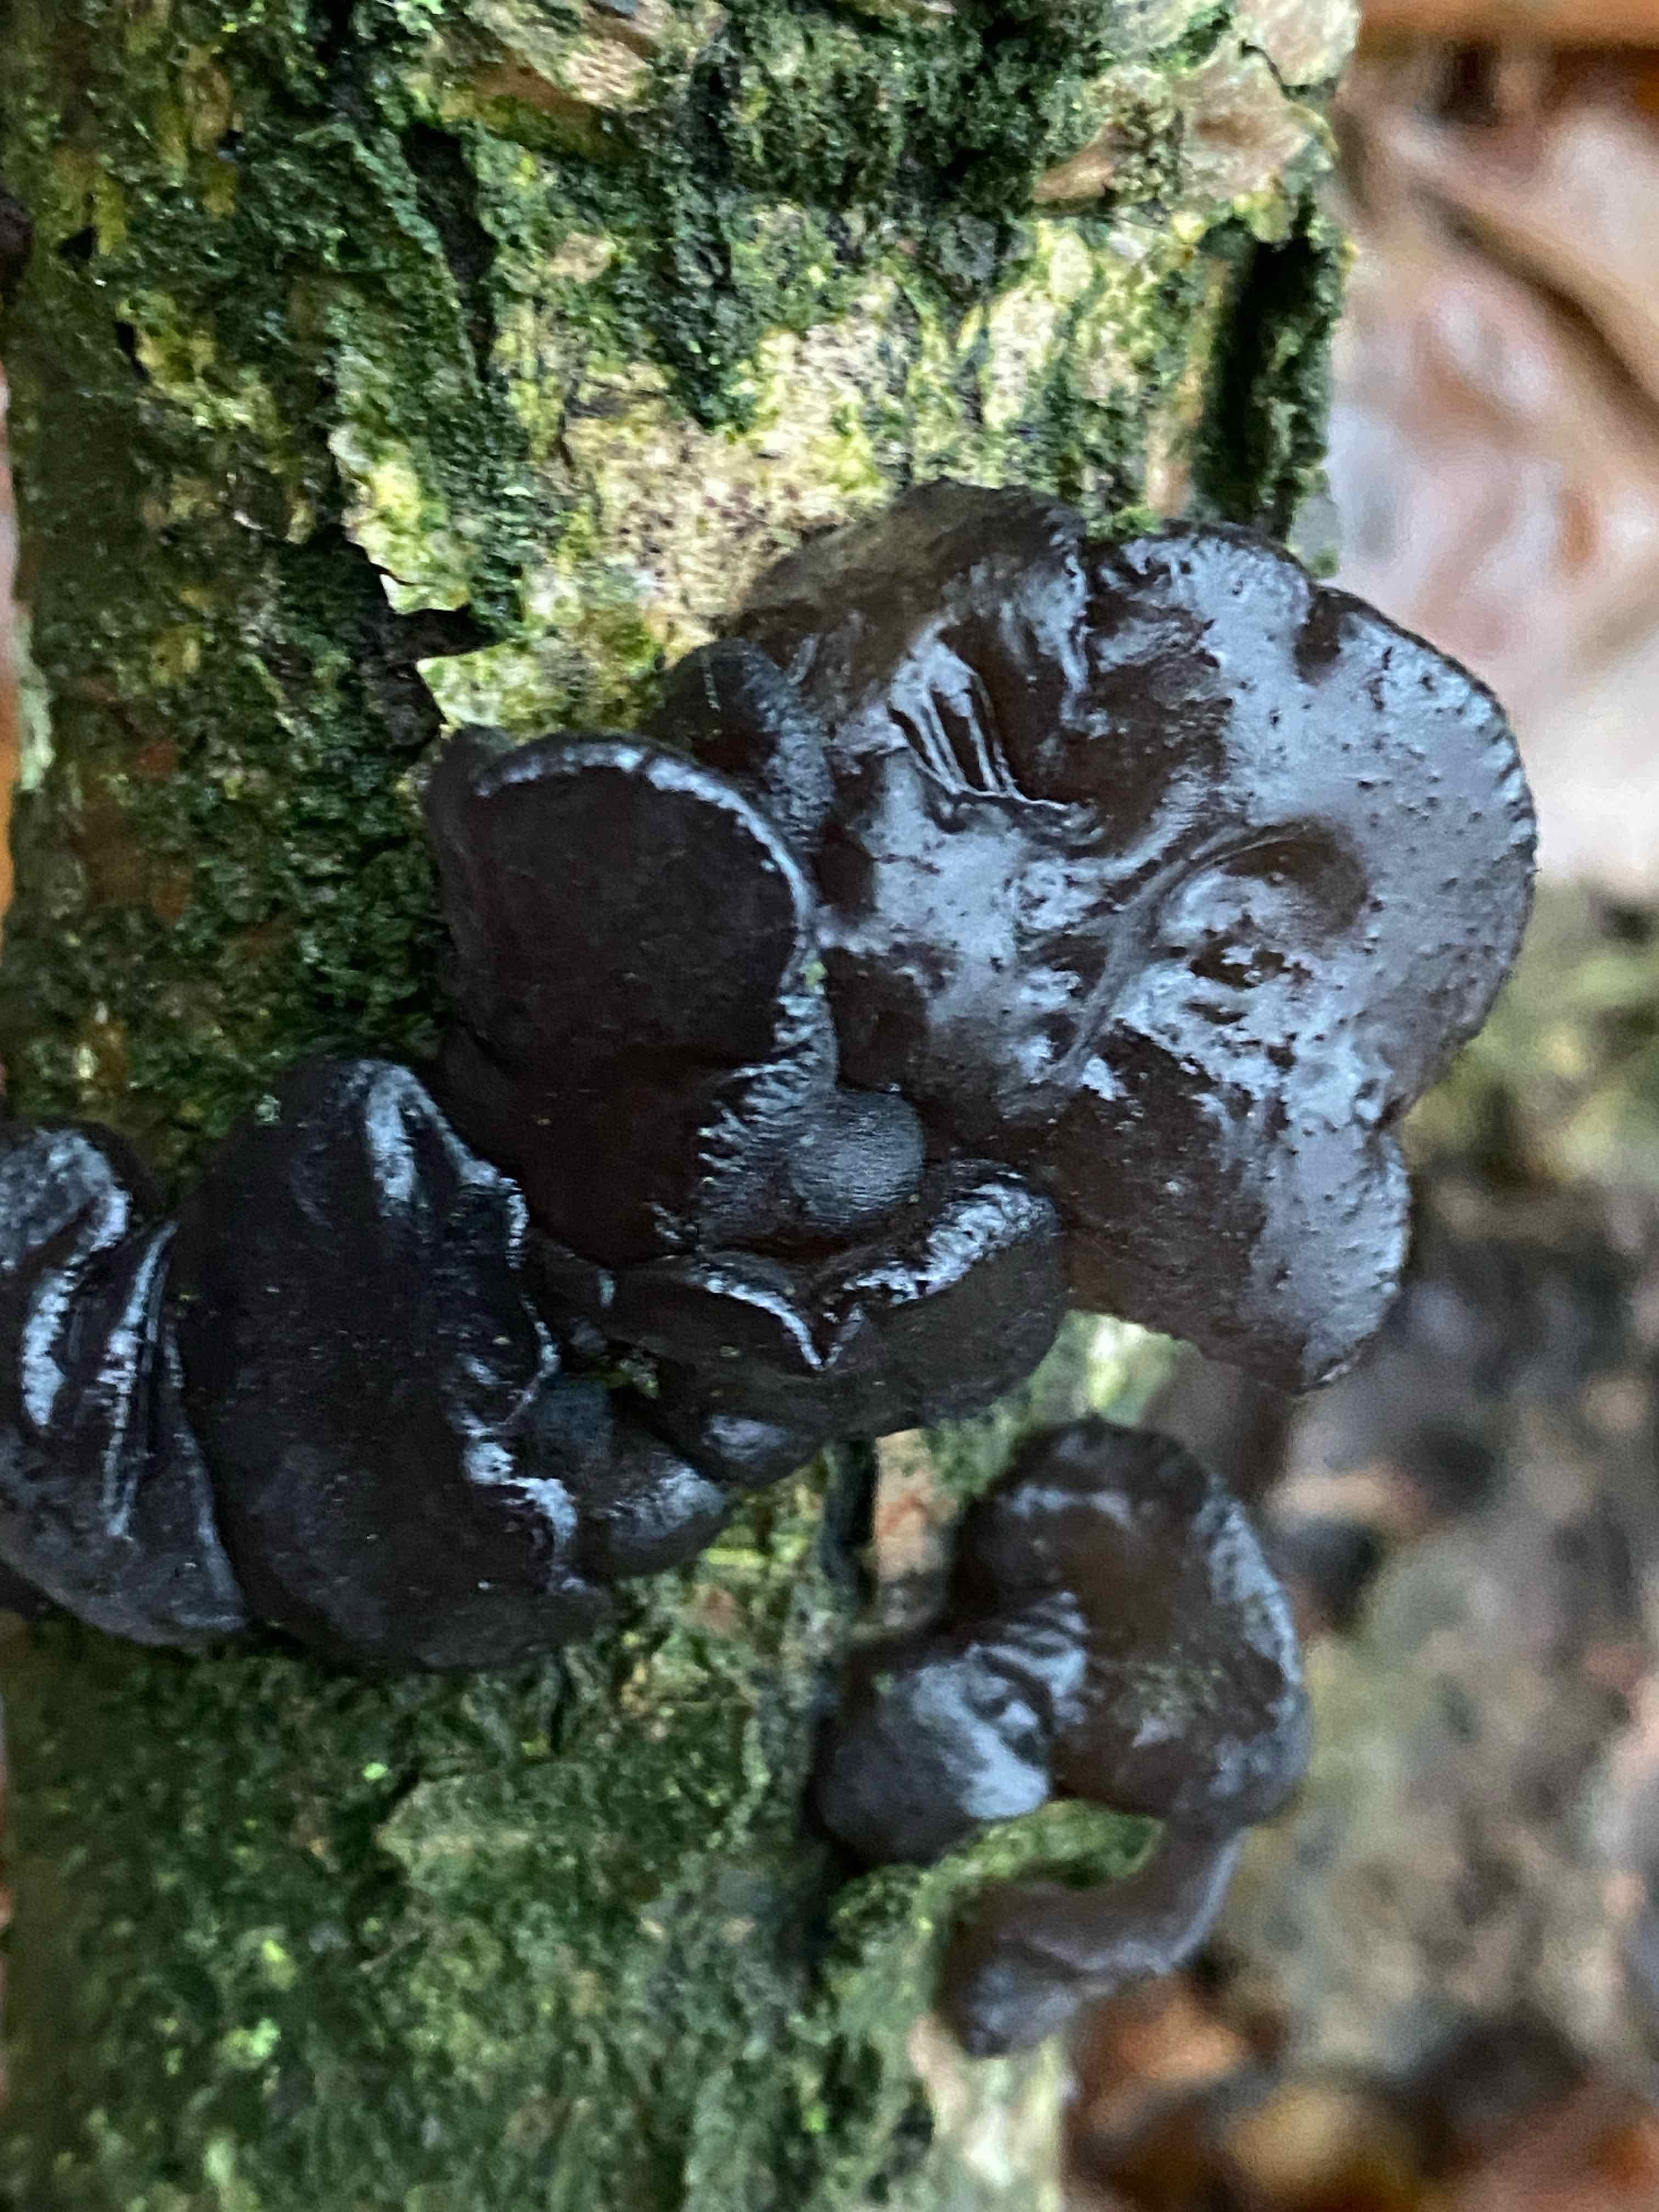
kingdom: Fungi
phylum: Basidiomycota
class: Agaricomycetes
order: Auriculariales
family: Auriculariaceae
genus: Exidia
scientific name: Exidia glandulosa
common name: ege-bævretop
